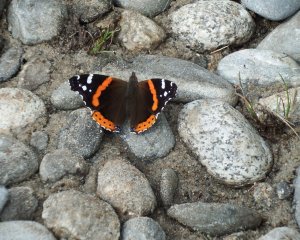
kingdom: Animalia
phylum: Arthropoda
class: Insecta
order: Lepidoptera
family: Nymphalidae
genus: Vanessa
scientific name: Vanessa atalanta
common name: Red Admiral
